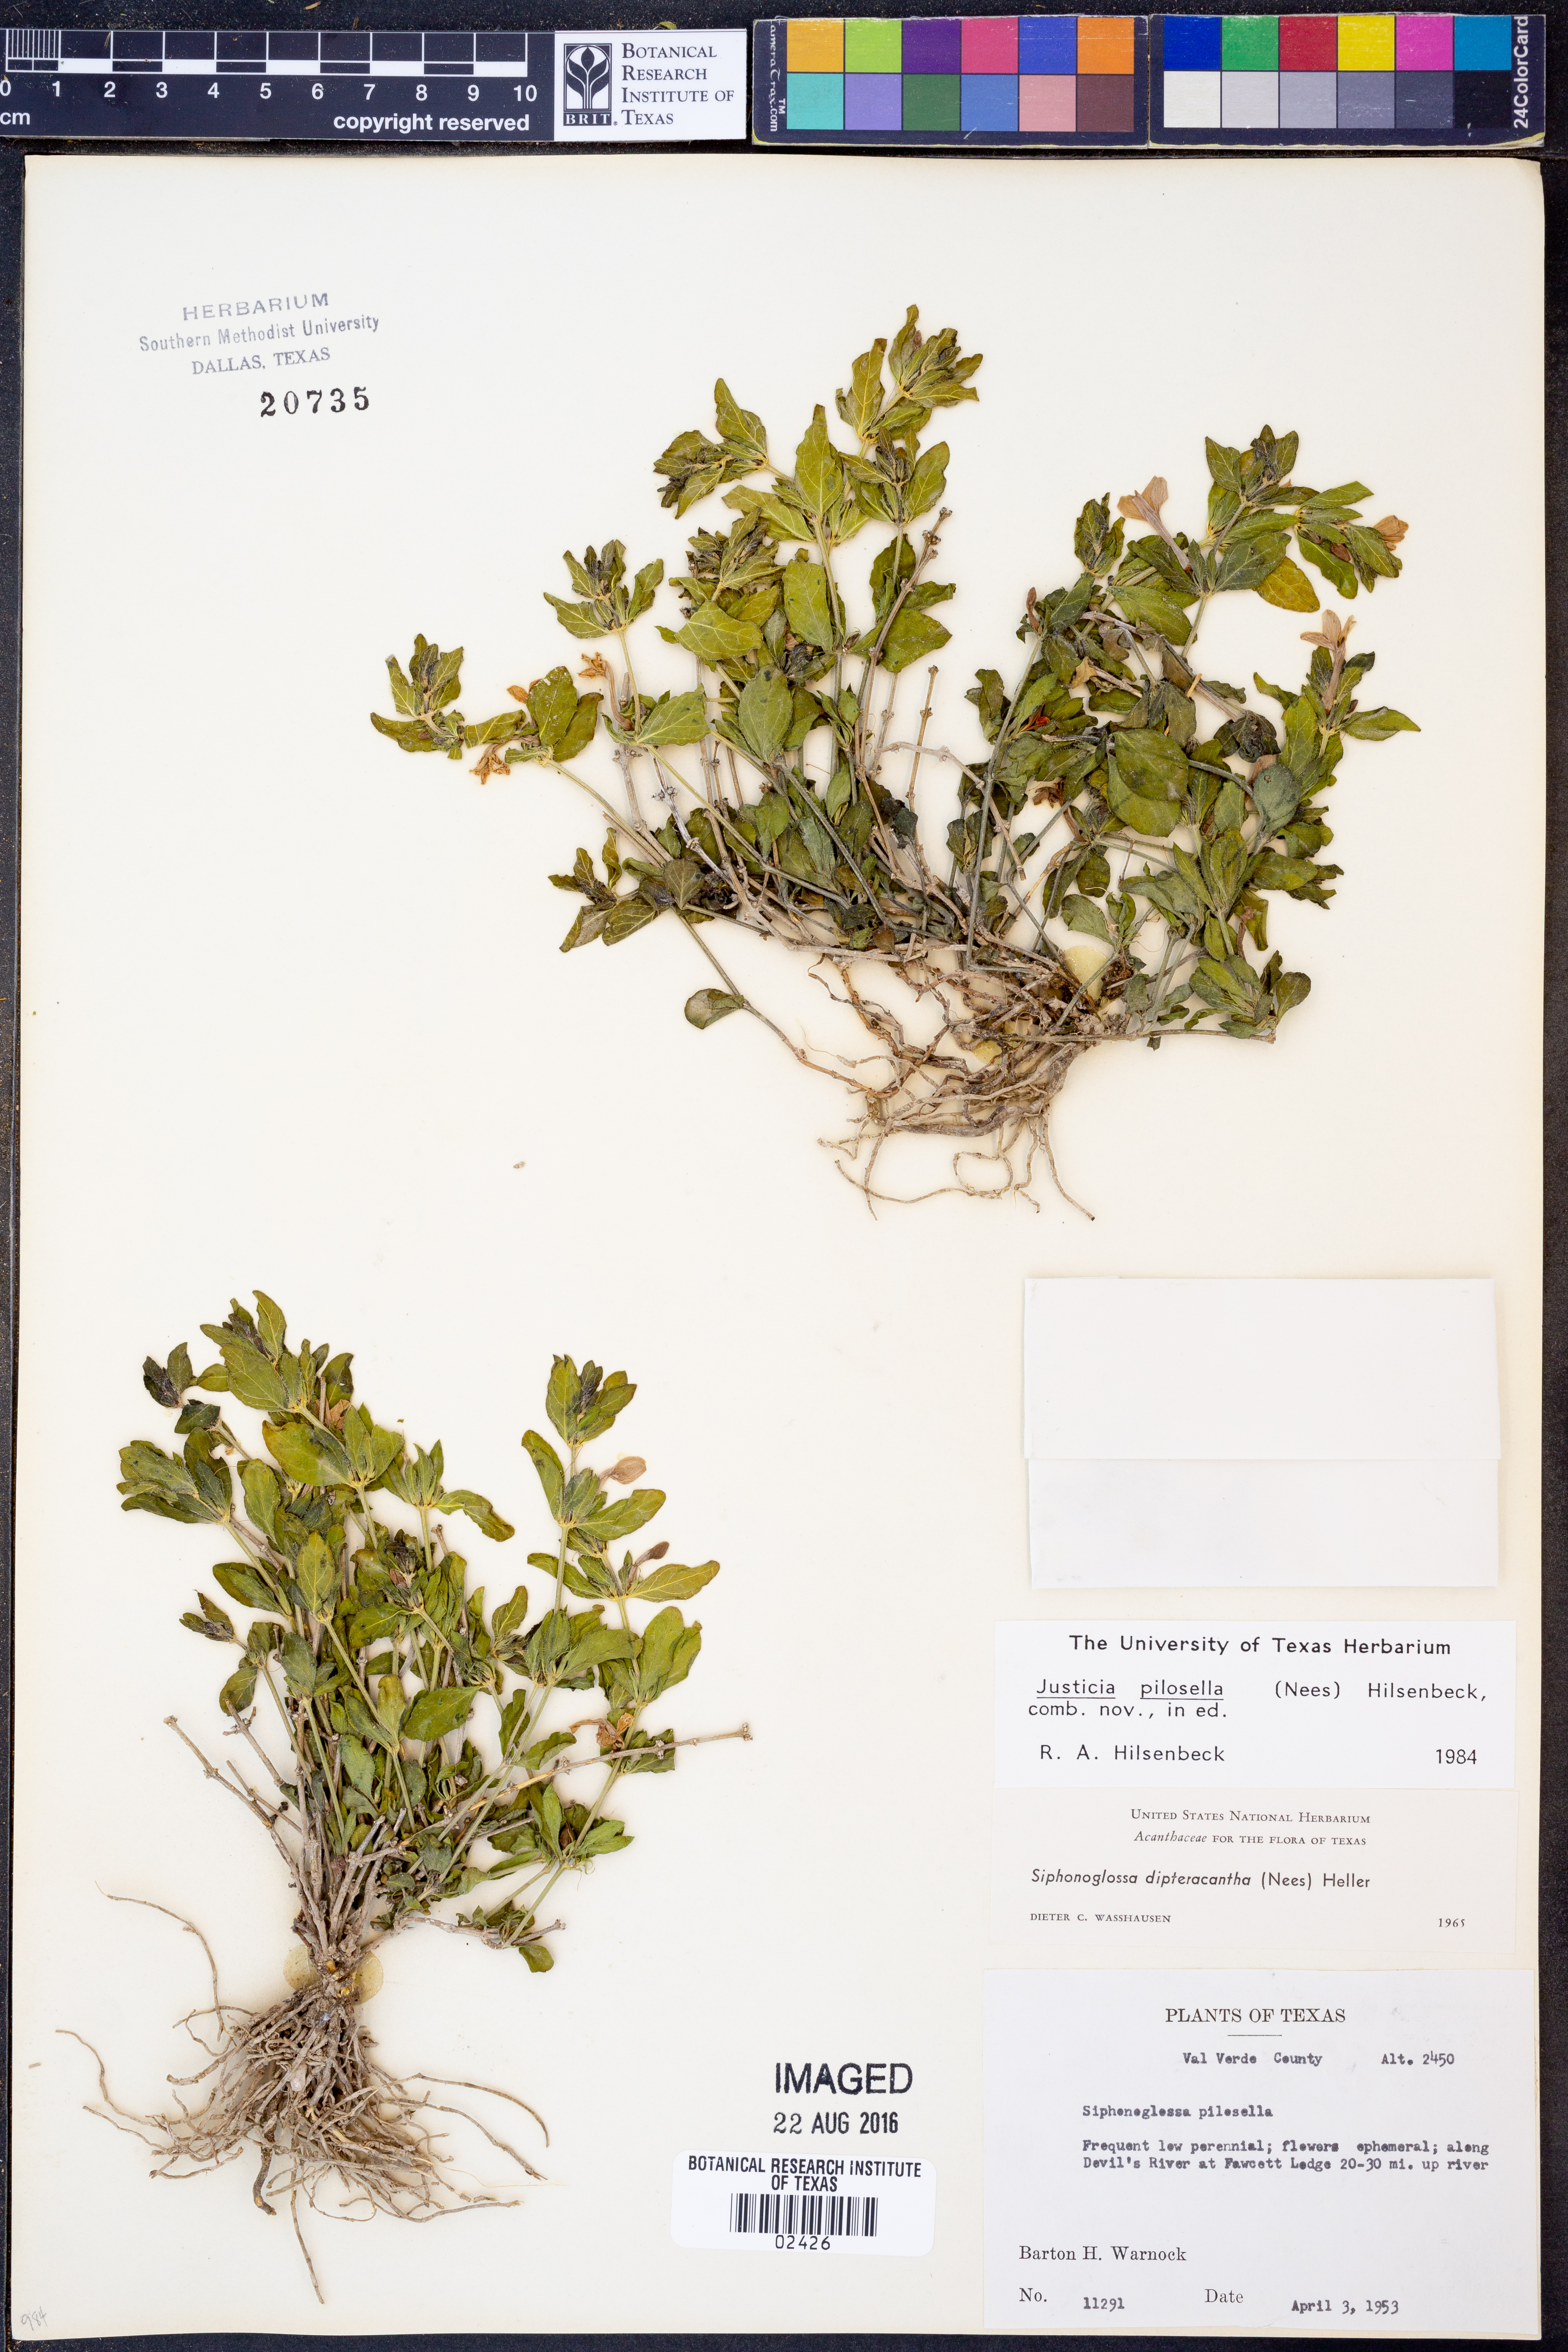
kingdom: Plantae
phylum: Tracheophyta
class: Magnoliopsida
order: Lamiales
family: Acanthaceae
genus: Justicia
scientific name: Justicia pilosella
